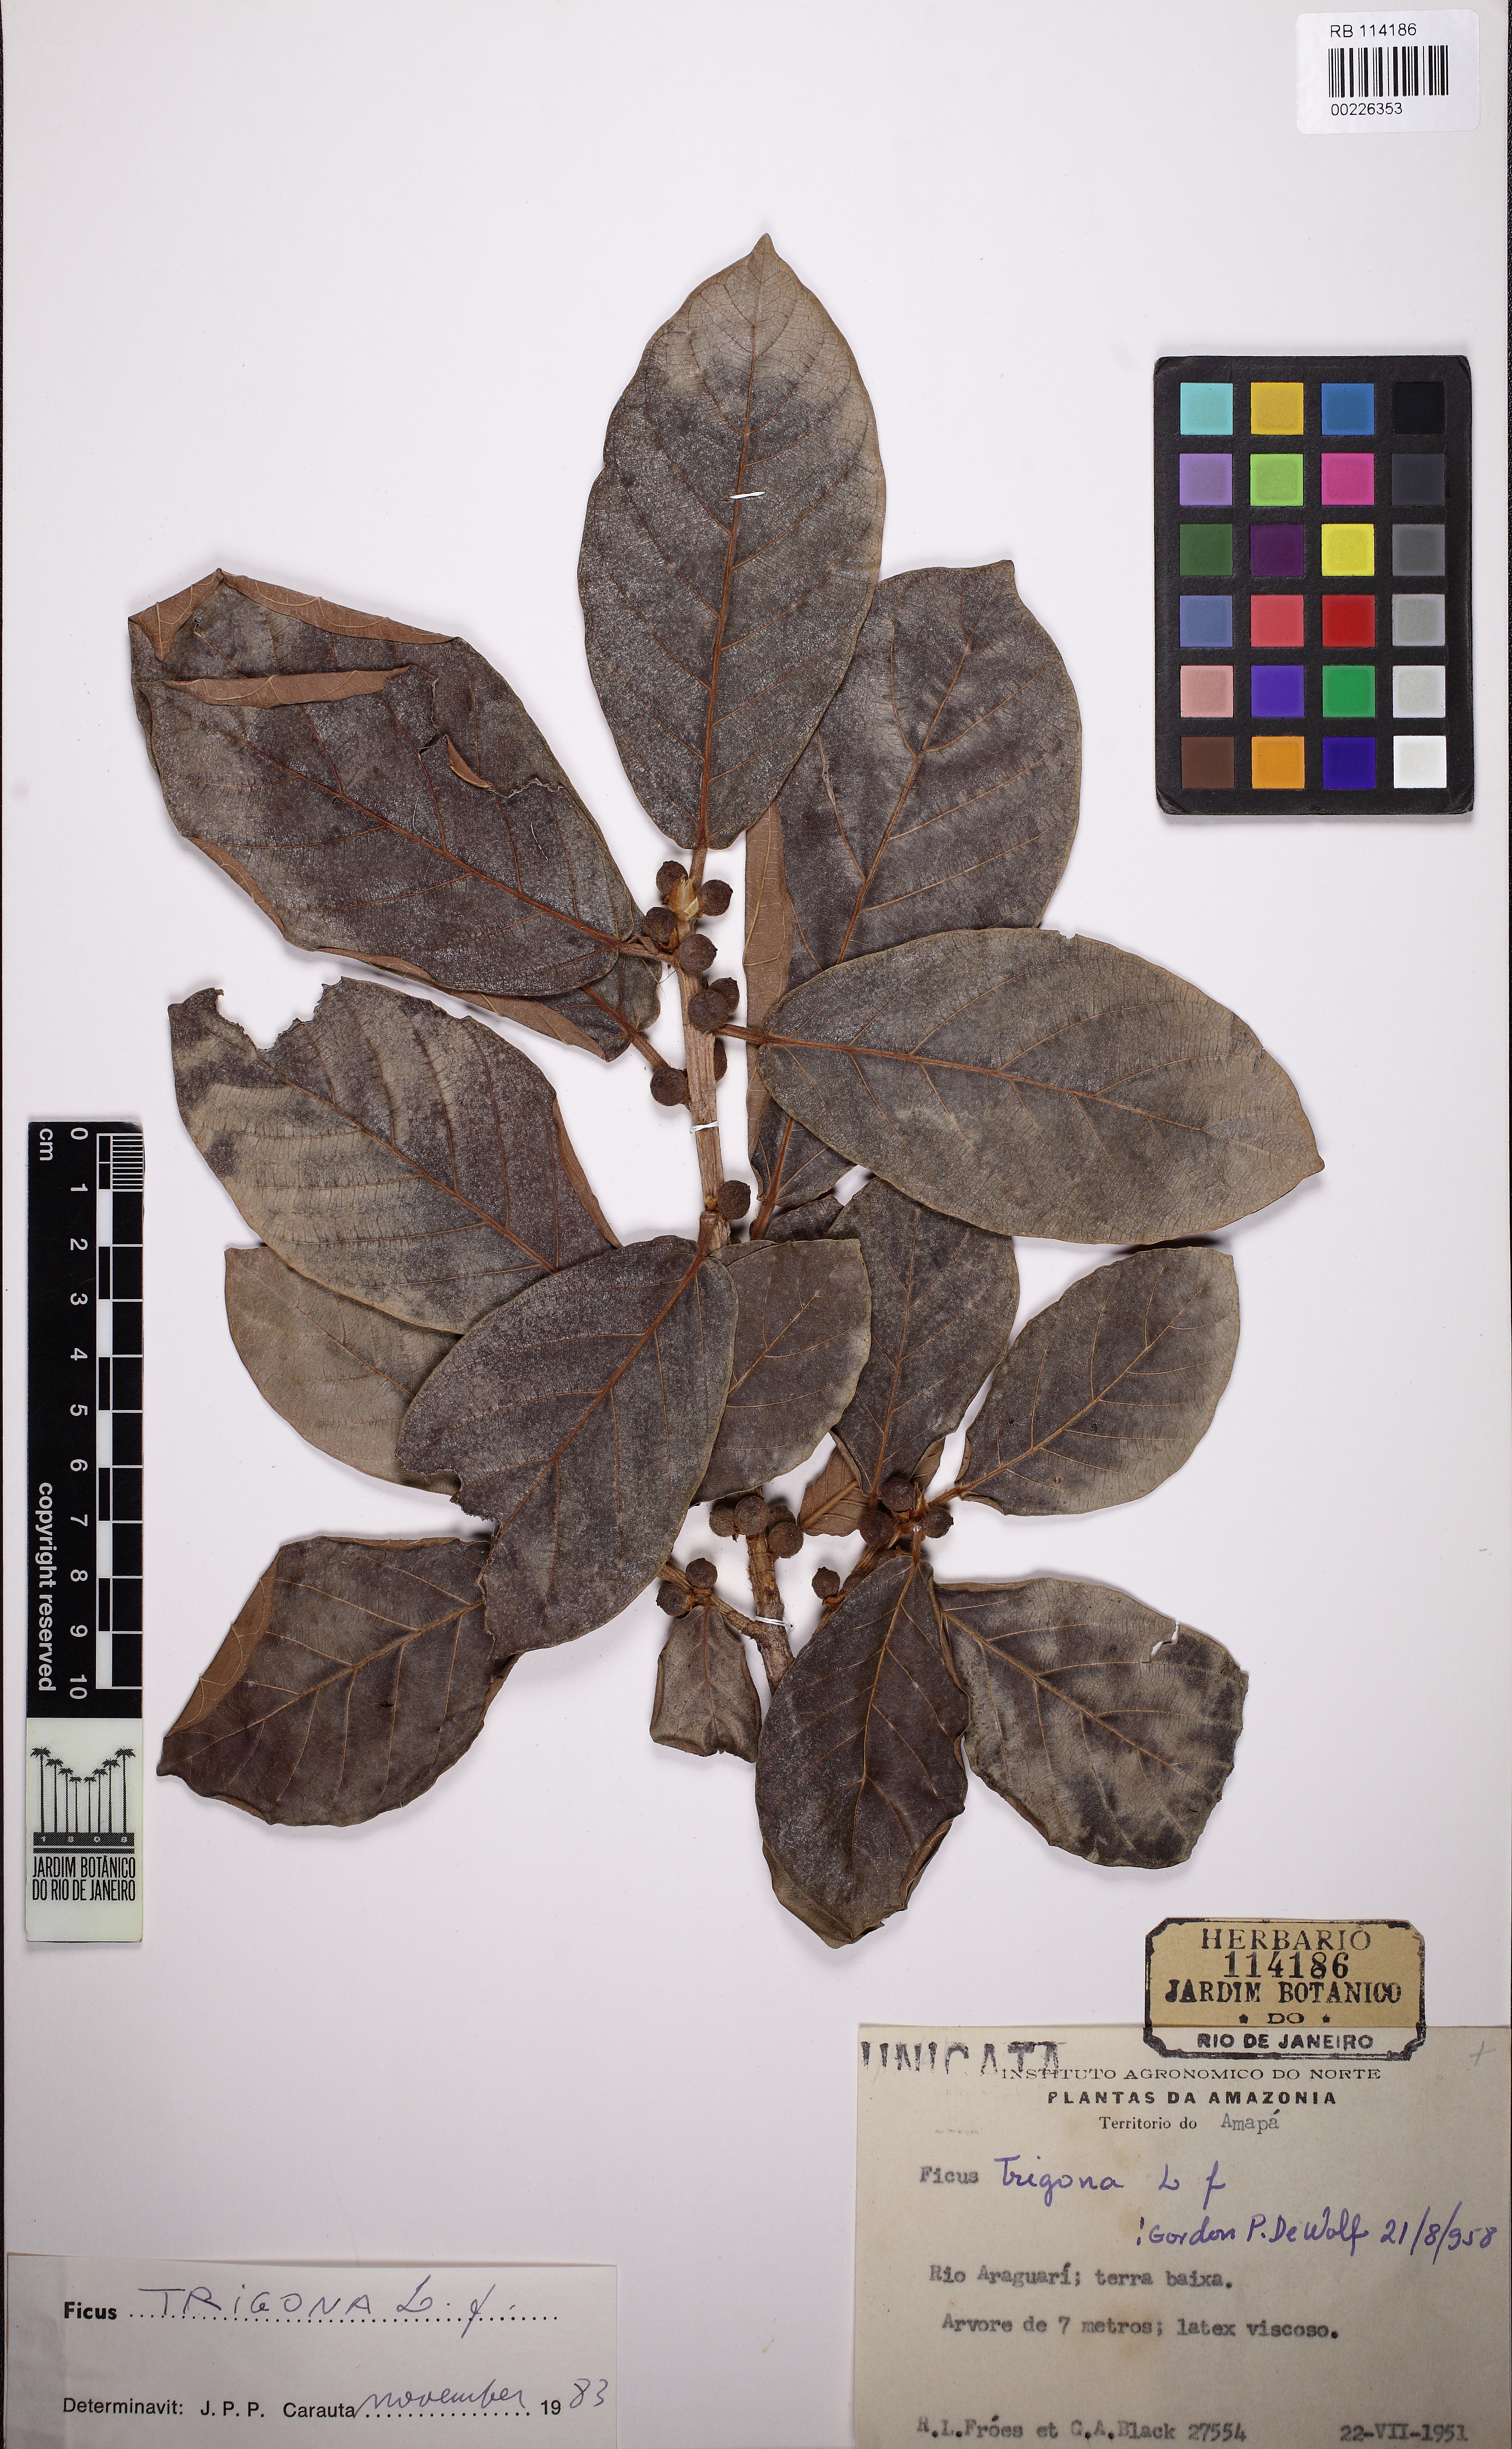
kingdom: Plantae
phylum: Tracheophyta
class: Magnoliopsida
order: Rosales
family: Moraceae
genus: Ficus
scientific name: Ficus trigonata
